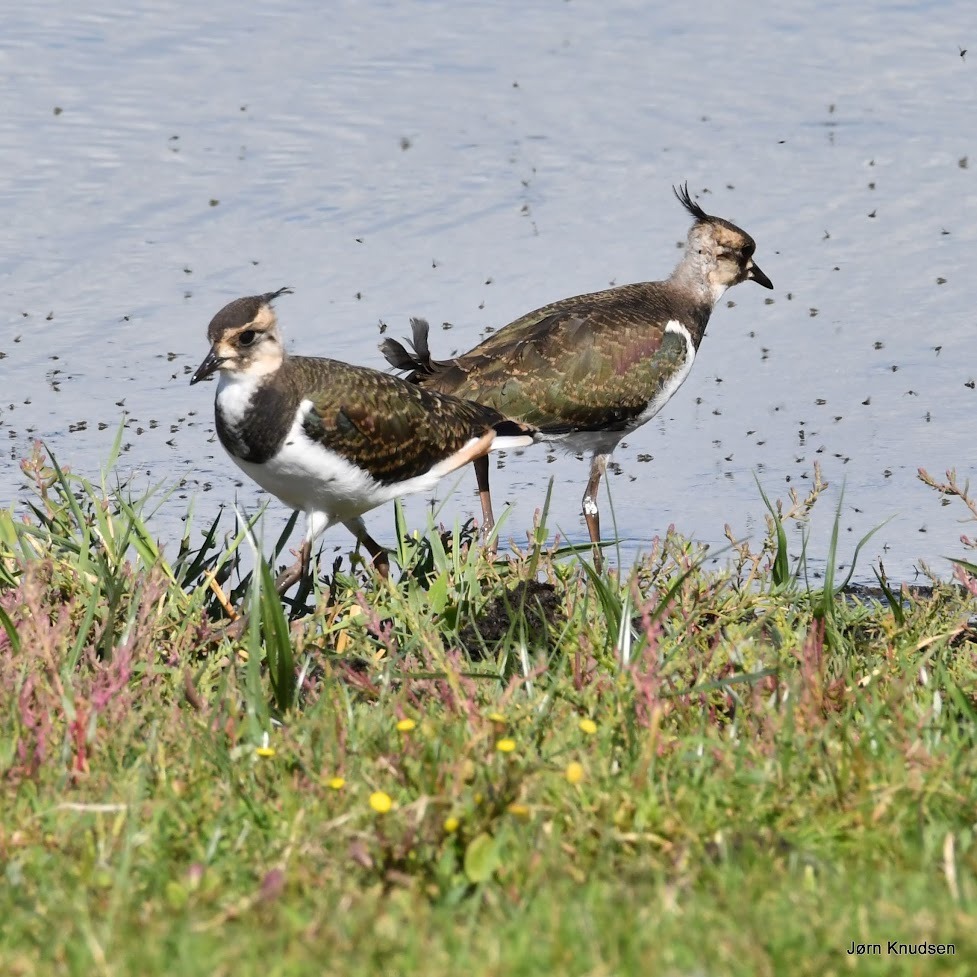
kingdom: Animalia
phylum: Chordata
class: Aves
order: Charadriiformes
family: Charadriidae
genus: Vanellus
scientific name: Vanellus vanellus
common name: Vibe
